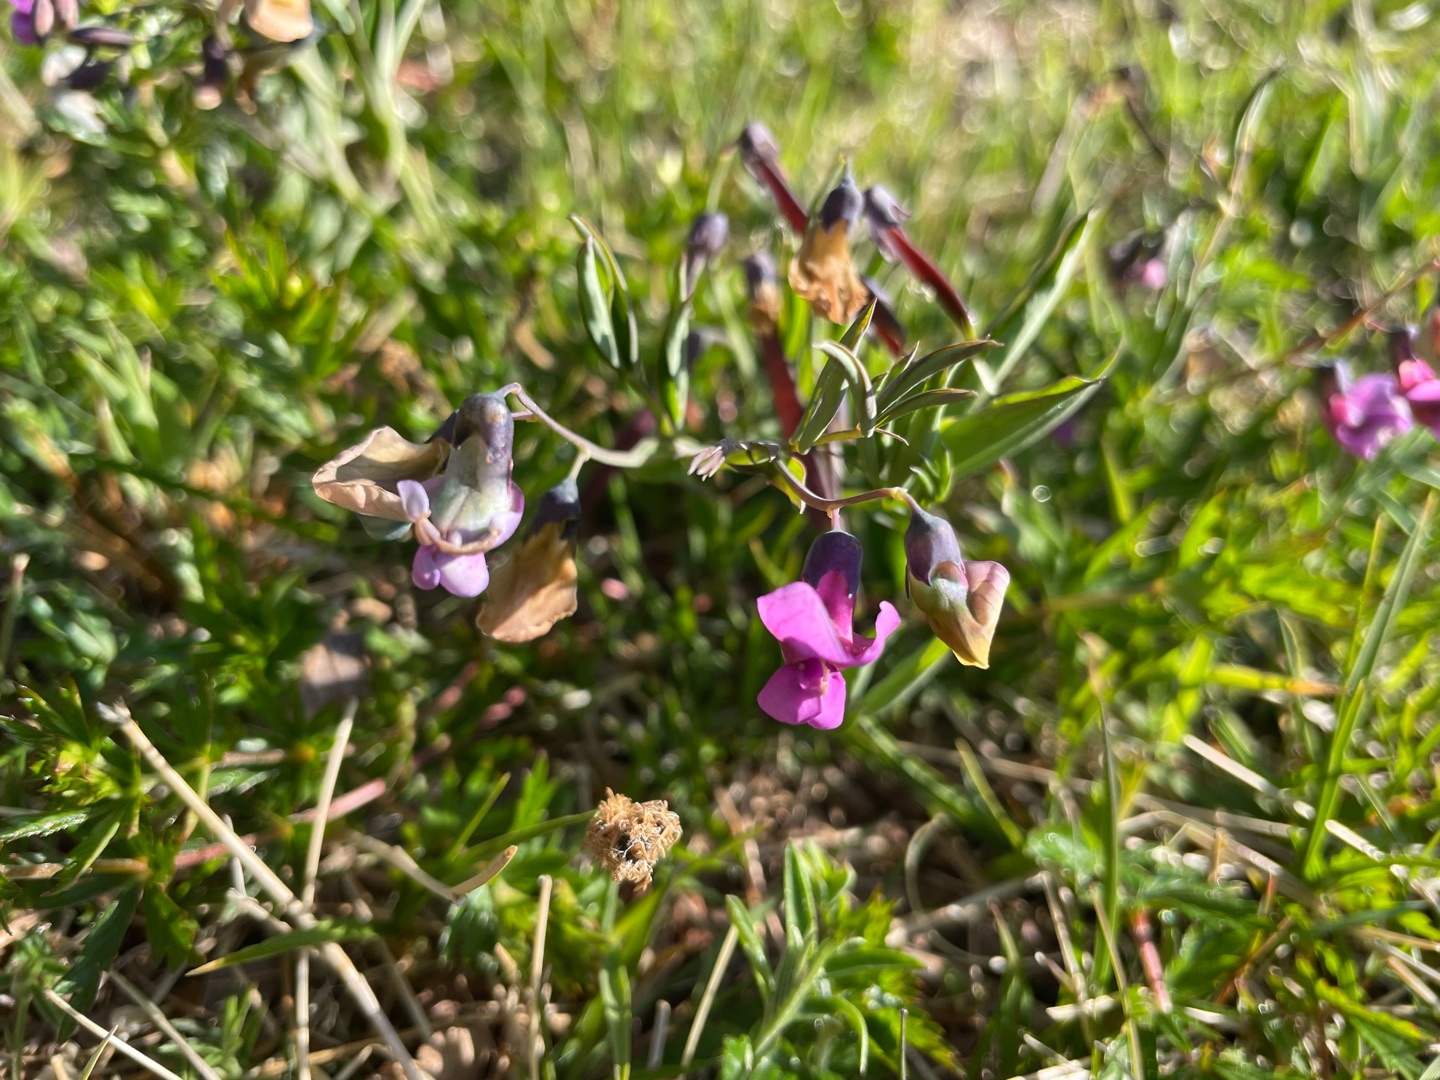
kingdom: Plantae
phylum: Tracheophyta
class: Magnoliopsida
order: Fabales
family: Fabaceae
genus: Lathyrus
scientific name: Lathyrus linifolius
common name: Krat-fladbælg
